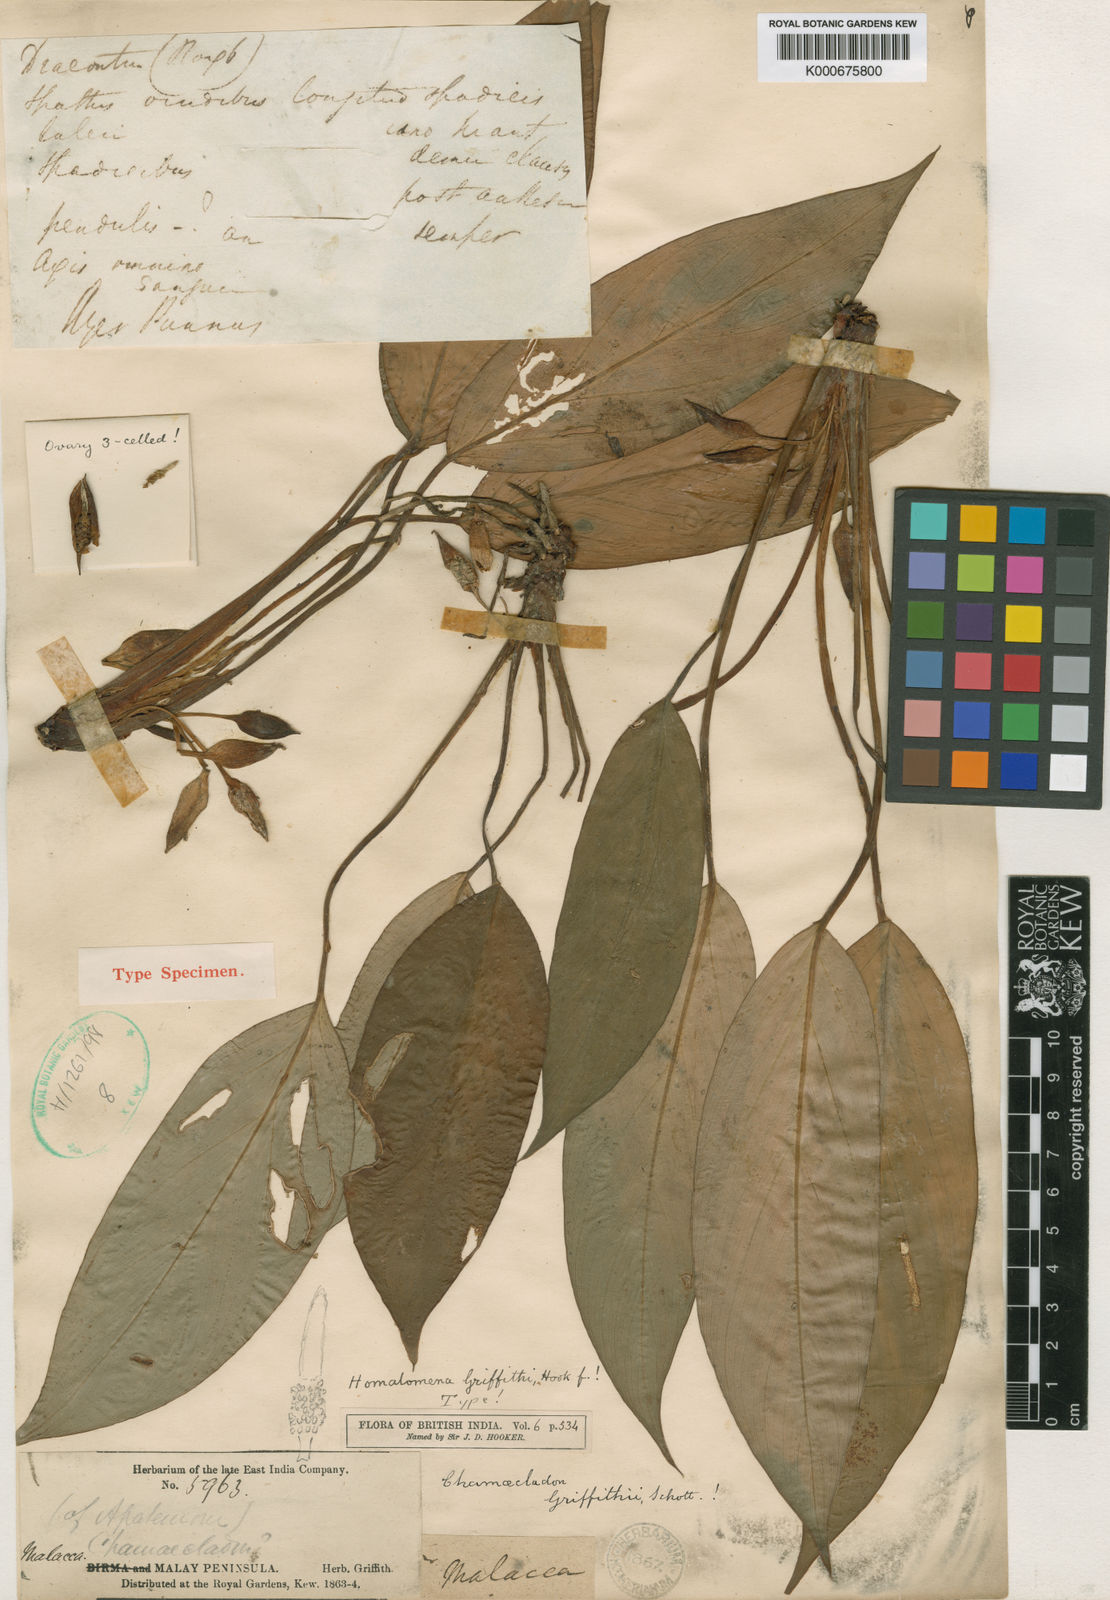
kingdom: Plantae
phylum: Tracheophyta
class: Liliopsida
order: Alismatales
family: Araceae
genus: Homalomena
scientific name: Homalomena griffithii
